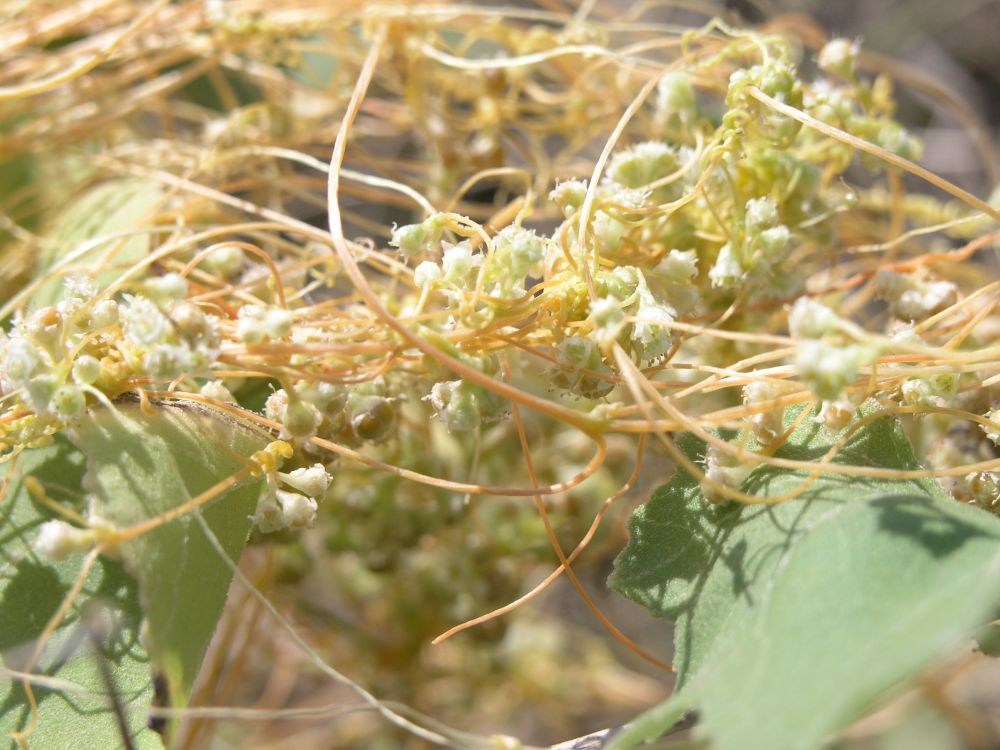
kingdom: Plantae
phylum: Tracheophyta
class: Magnoliopsida
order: Solanales
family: Convolvulaceae
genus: Cuscuta
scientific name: Cuscuta pentagona
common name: Fiveangled dodder
